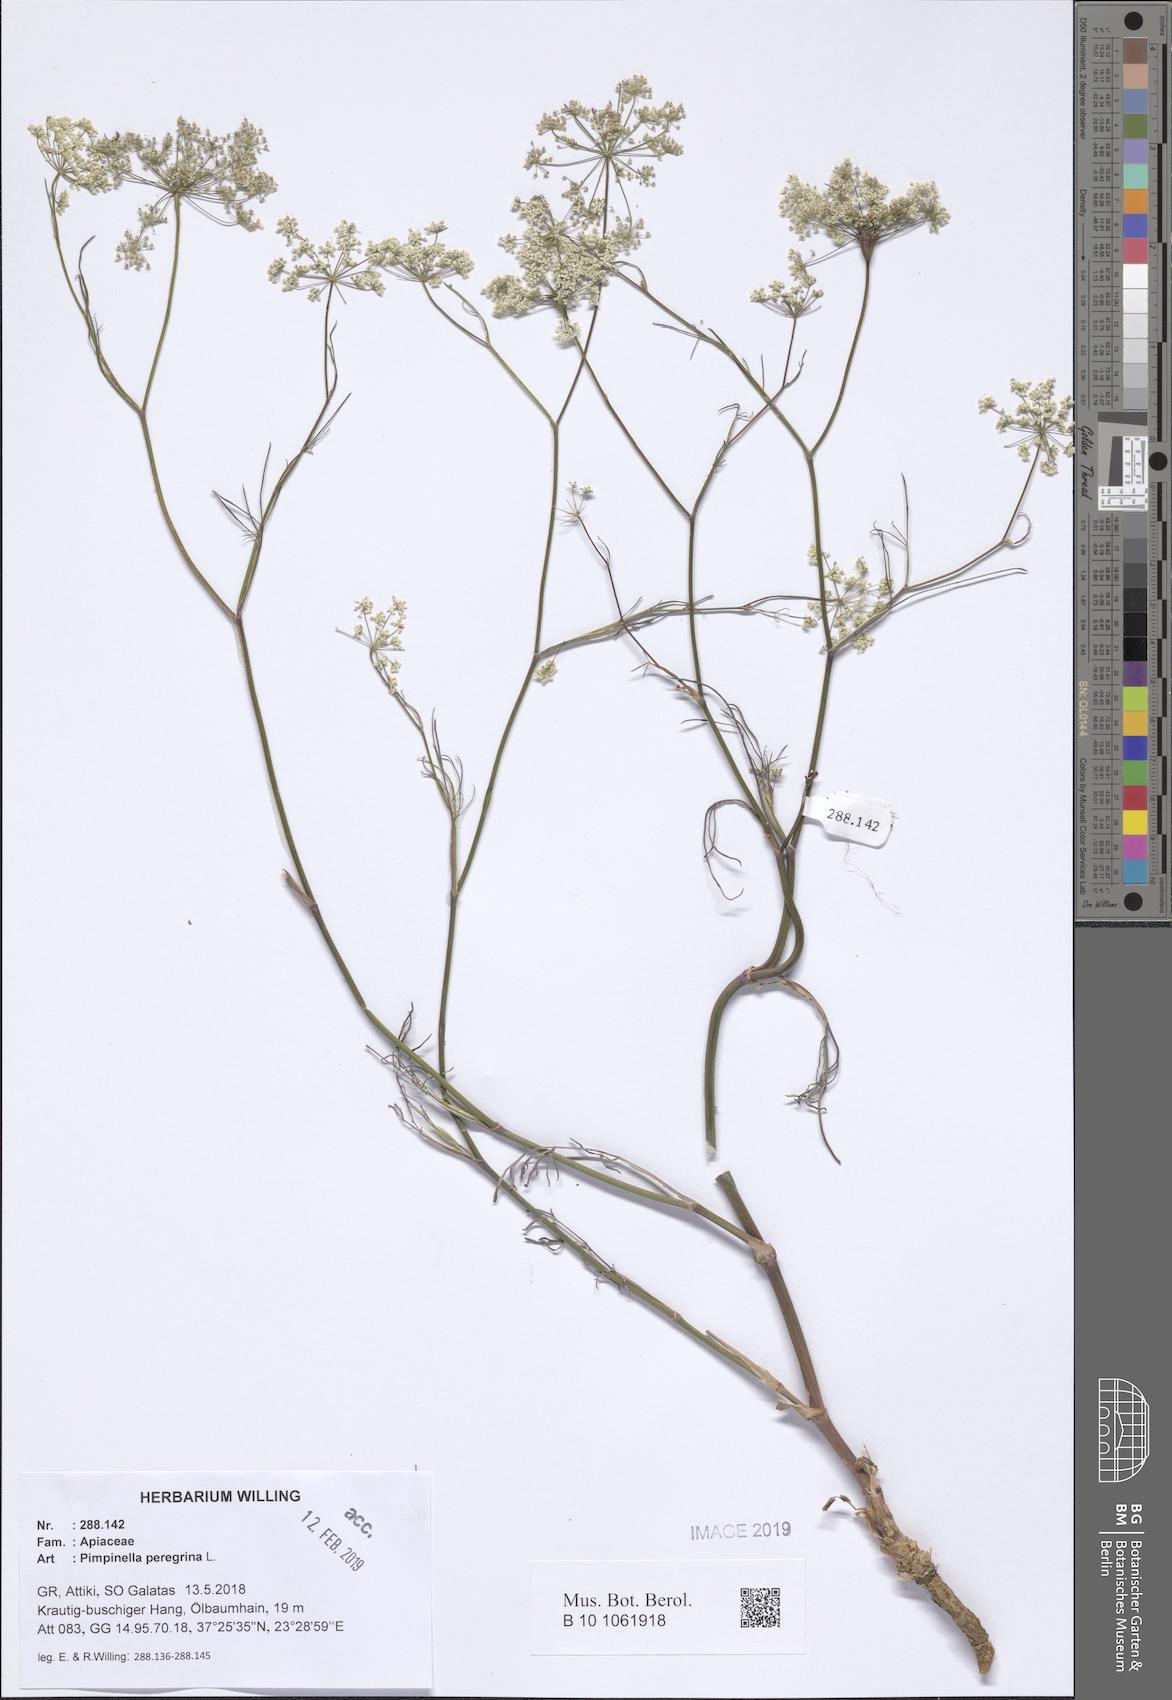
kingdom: Plantae
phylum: Tracheophyta
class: Magnoliopsida
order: Apiales
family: Apiaceae
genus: Pimpinella
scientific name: Pimpinella peregrina
